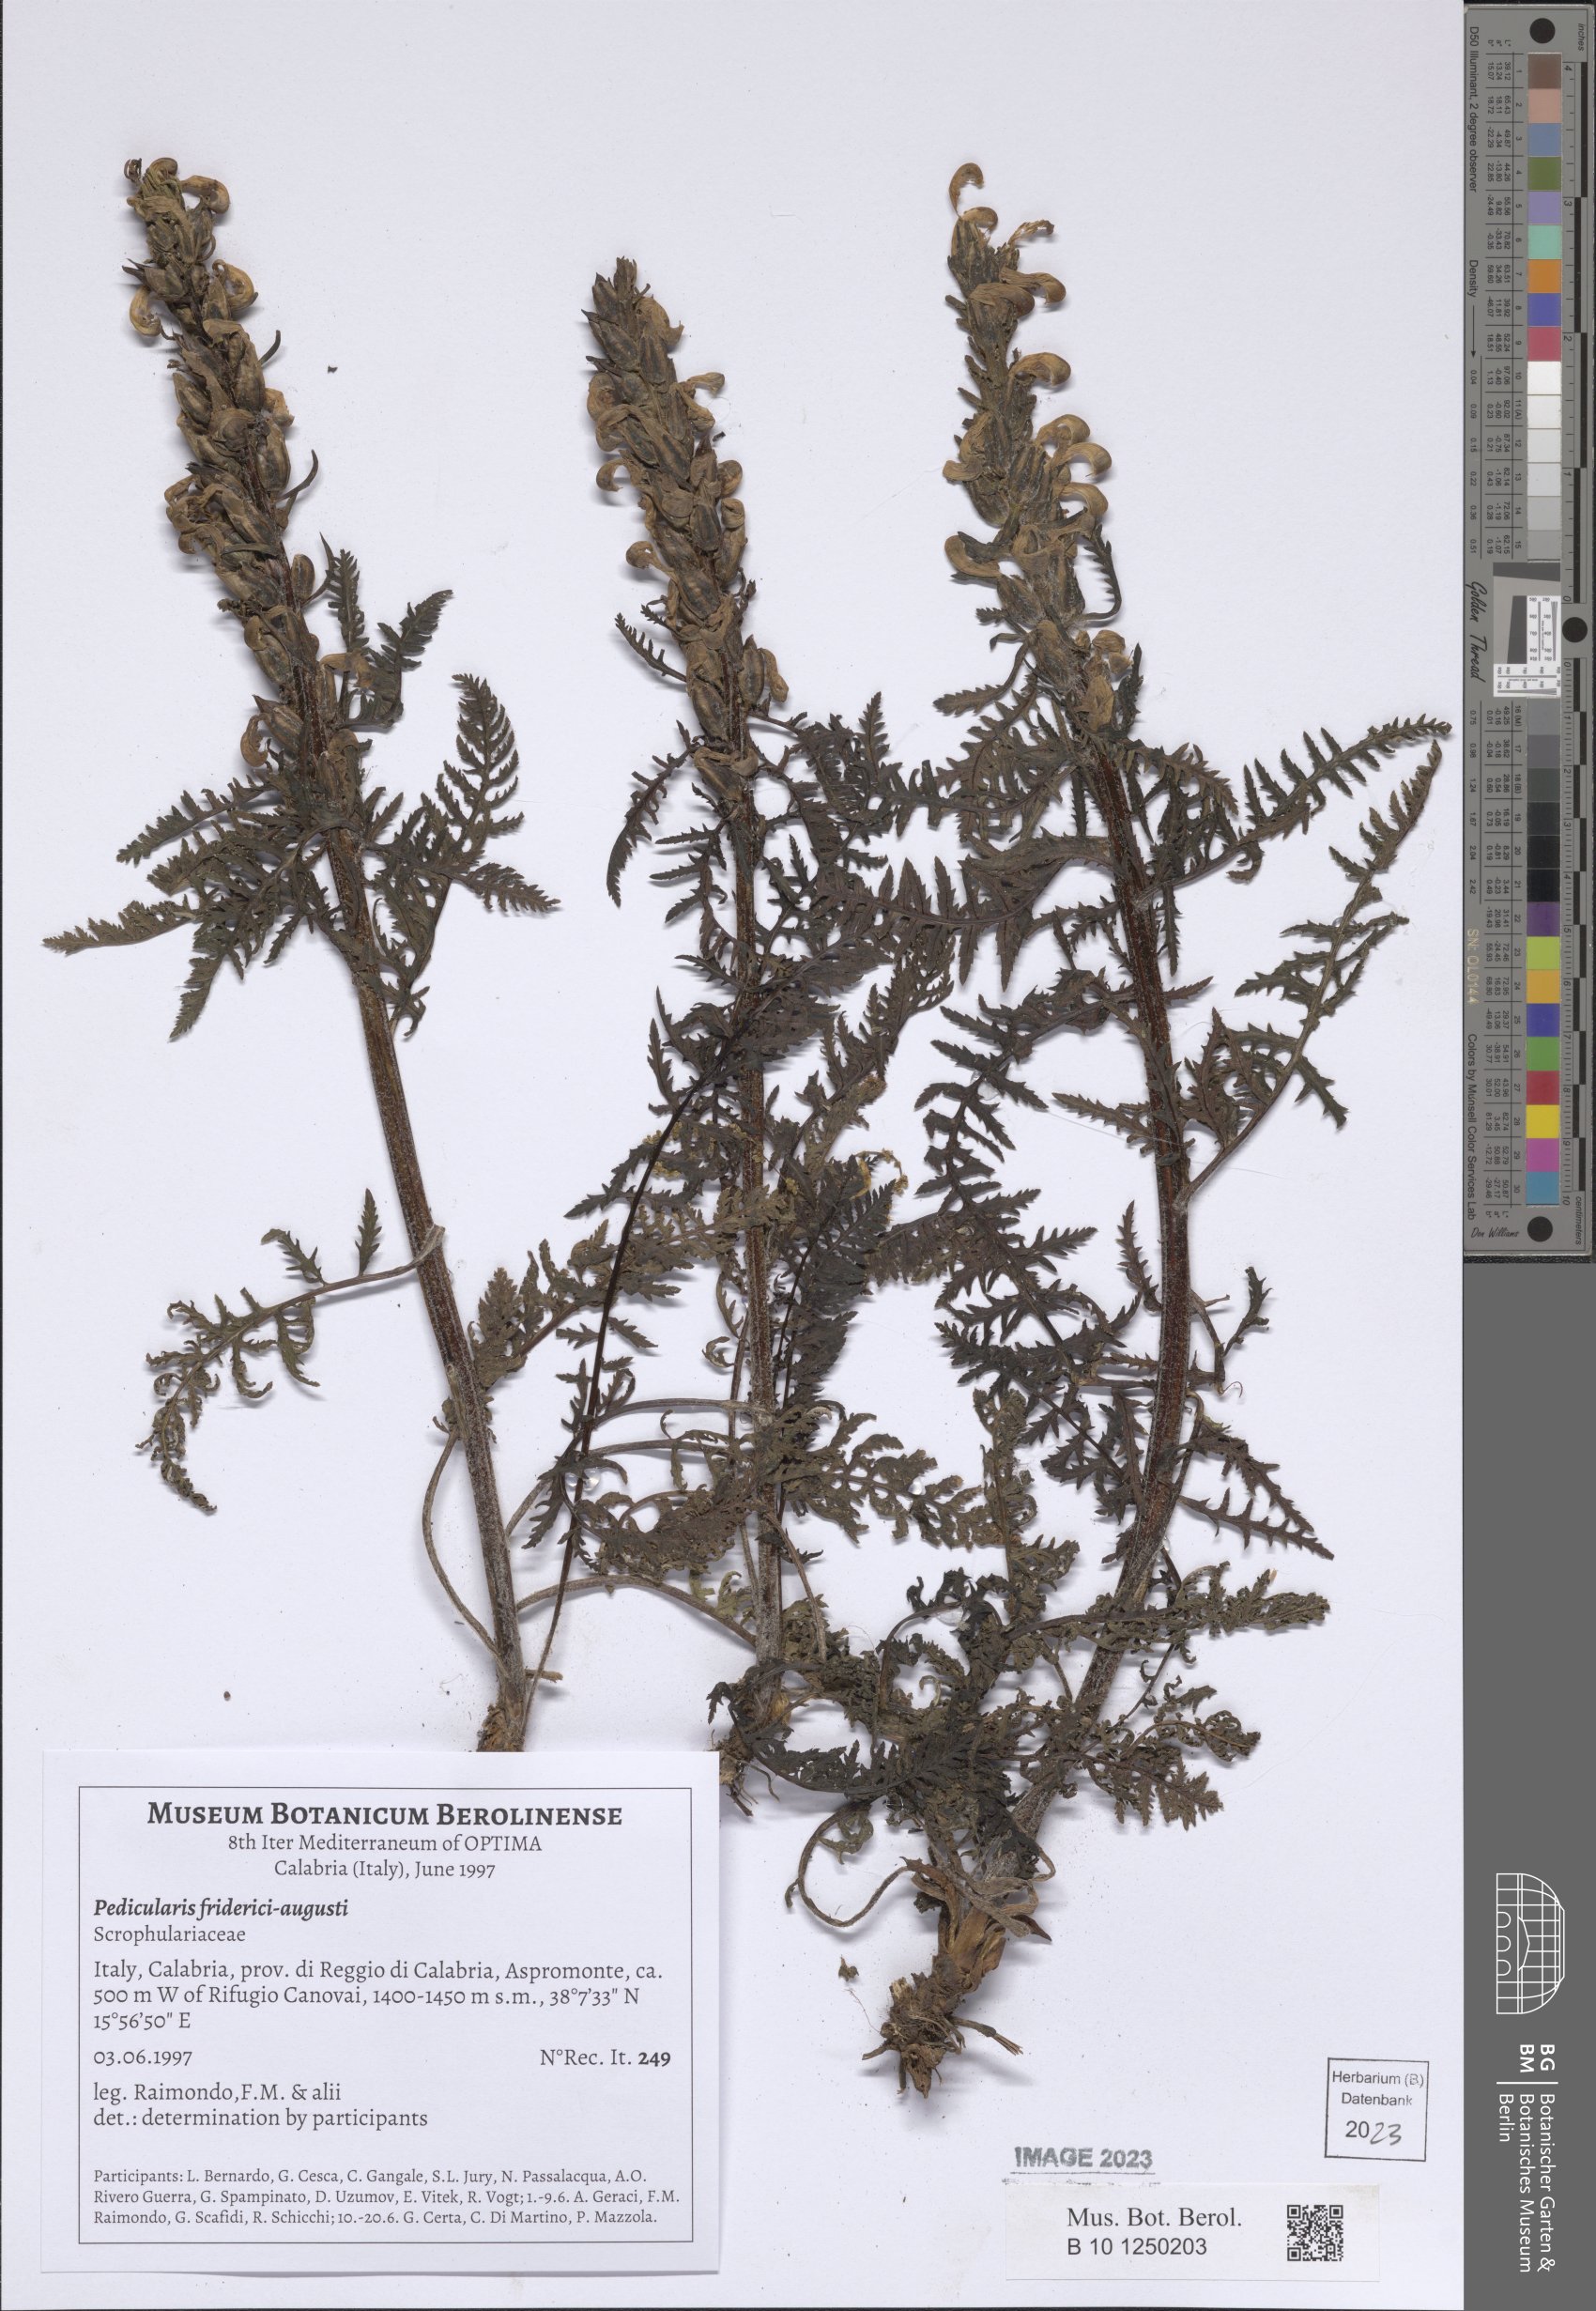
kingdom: Plantae
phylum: Tracheophyta
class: Magnoliopsida
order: Lamiales
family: Orobanchaceae
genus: Pedicularis
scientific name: Pedicularis friderici-augusti
